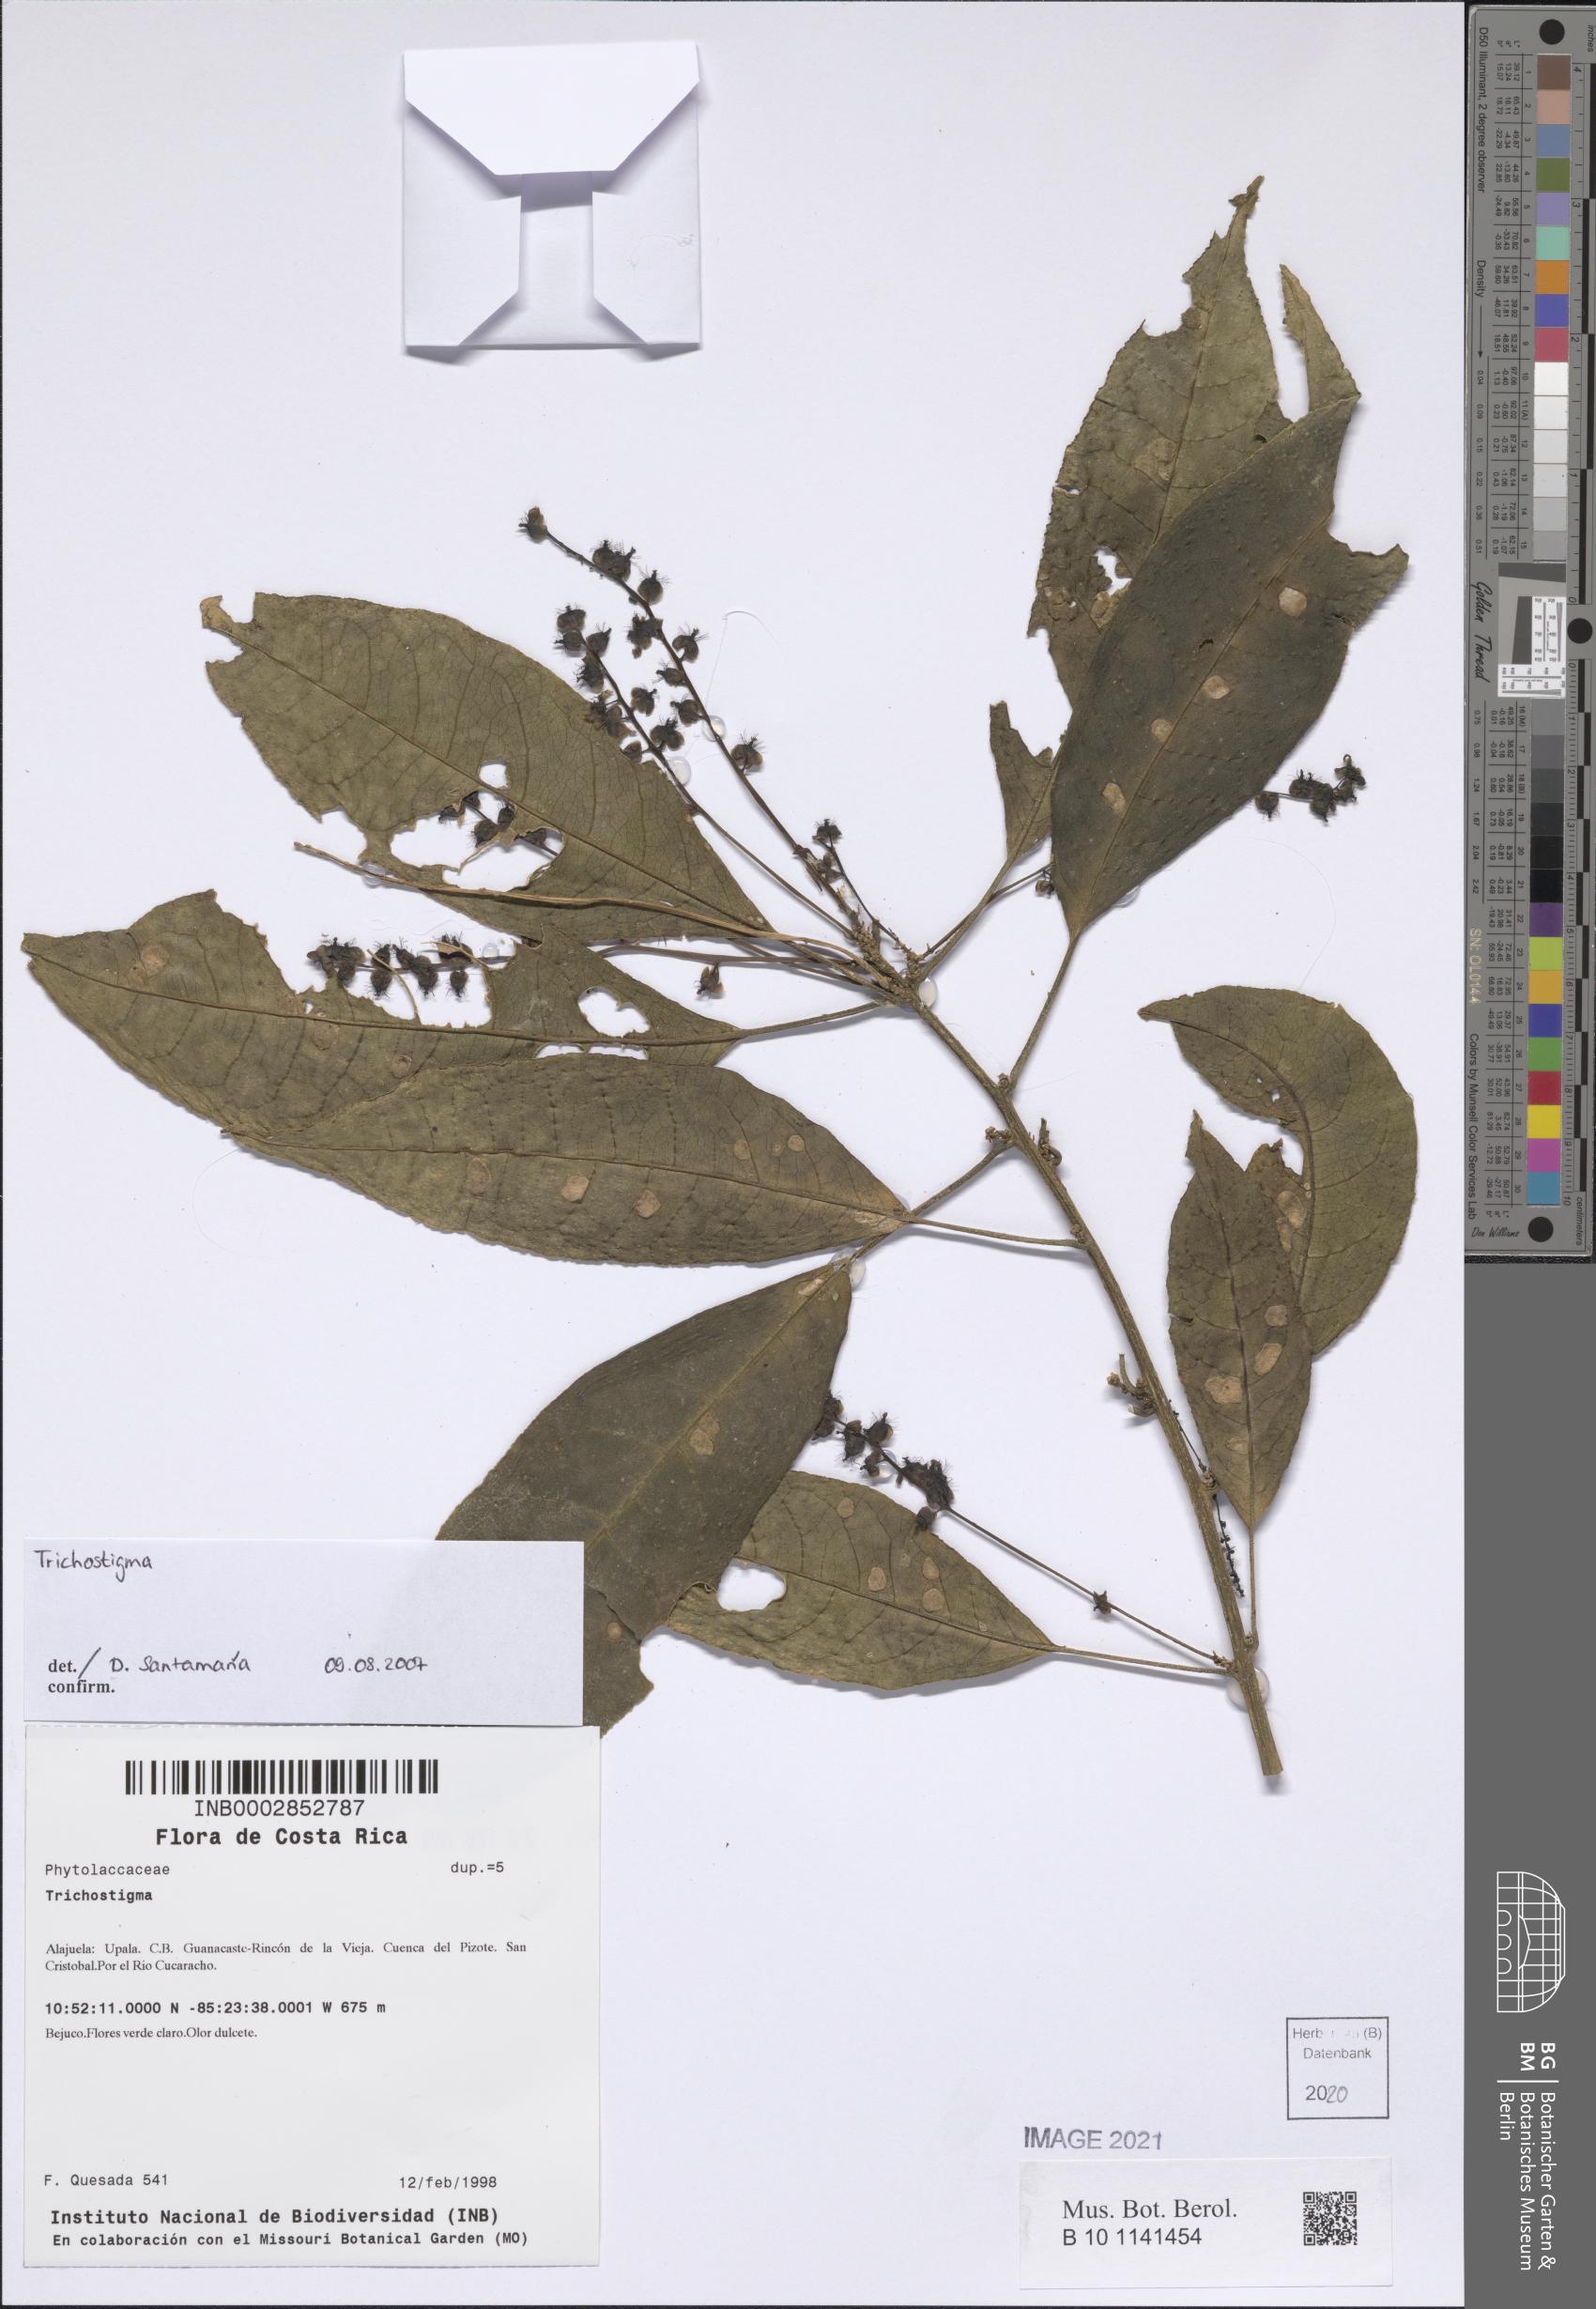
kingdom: Plantae
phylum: Tracheophyta
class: Magnoliopsida
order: Caryophyllales
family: Phytolaccaceae
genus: Trichostigma
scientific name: Trichostigma
